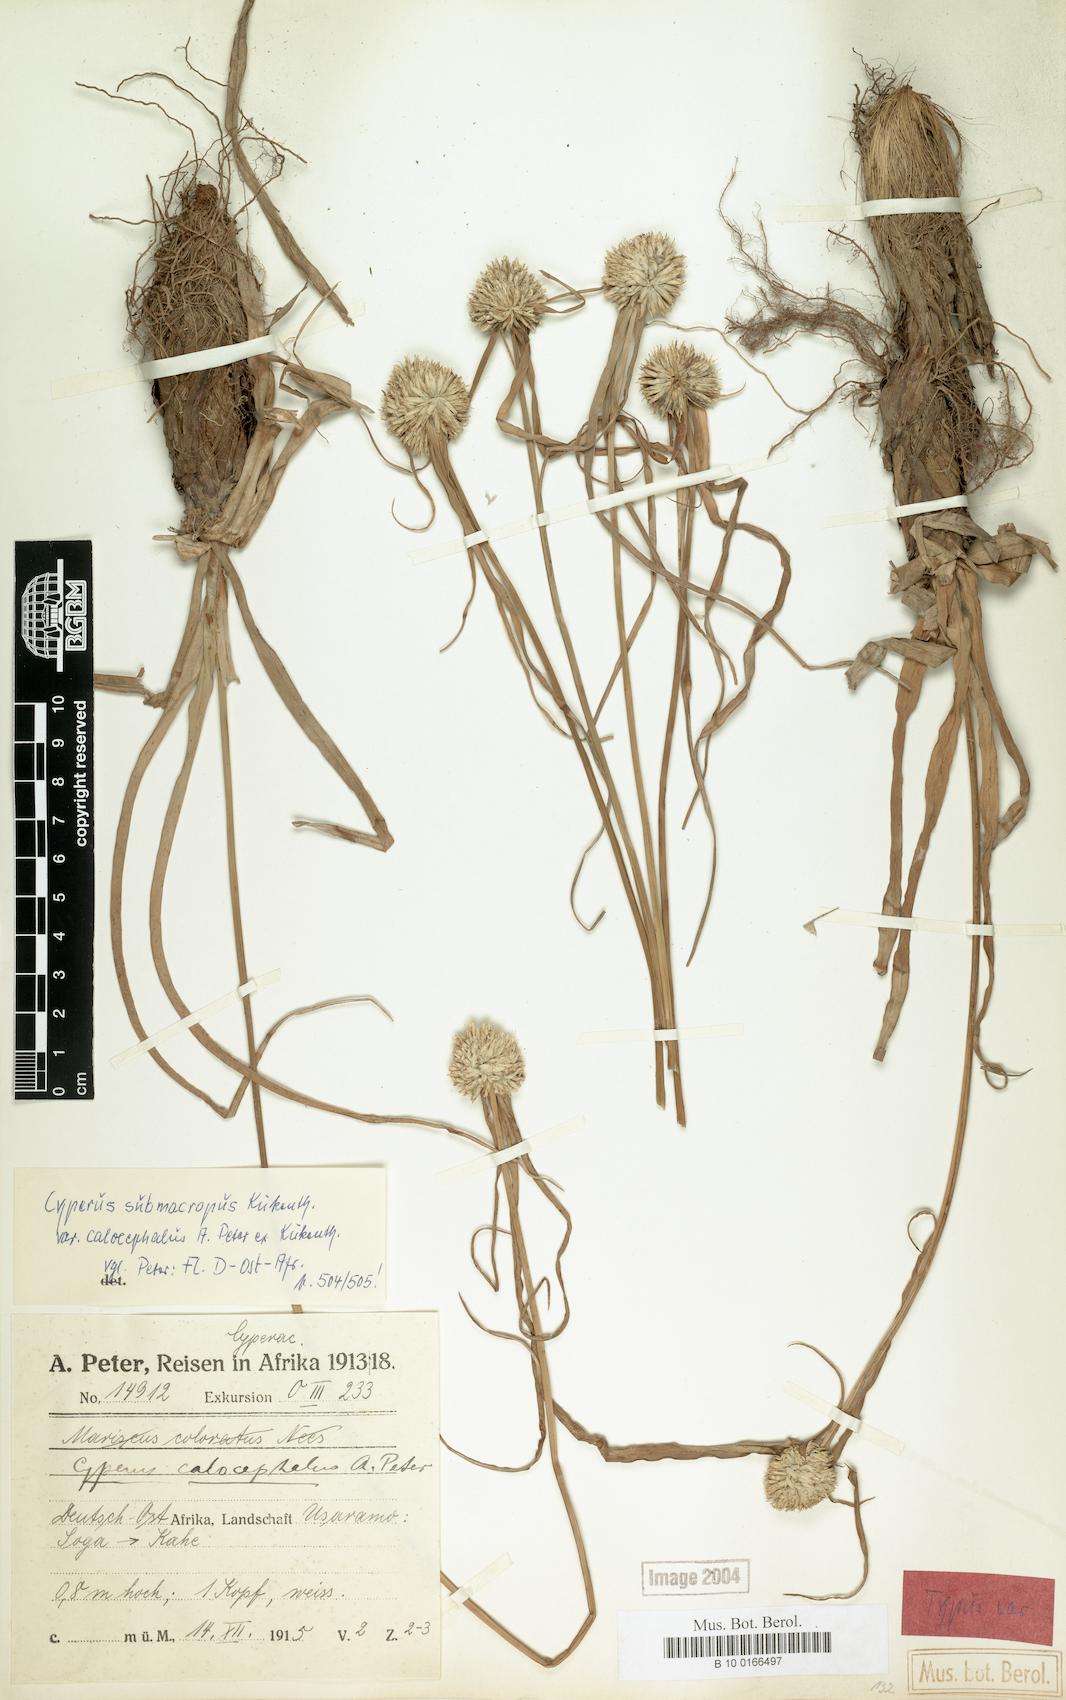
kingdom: Plantae
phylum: Tracheophyta
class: Liliopsida
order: Poales
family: Cyperaceae
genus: Cyperus
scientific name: Cyperus mollipes
